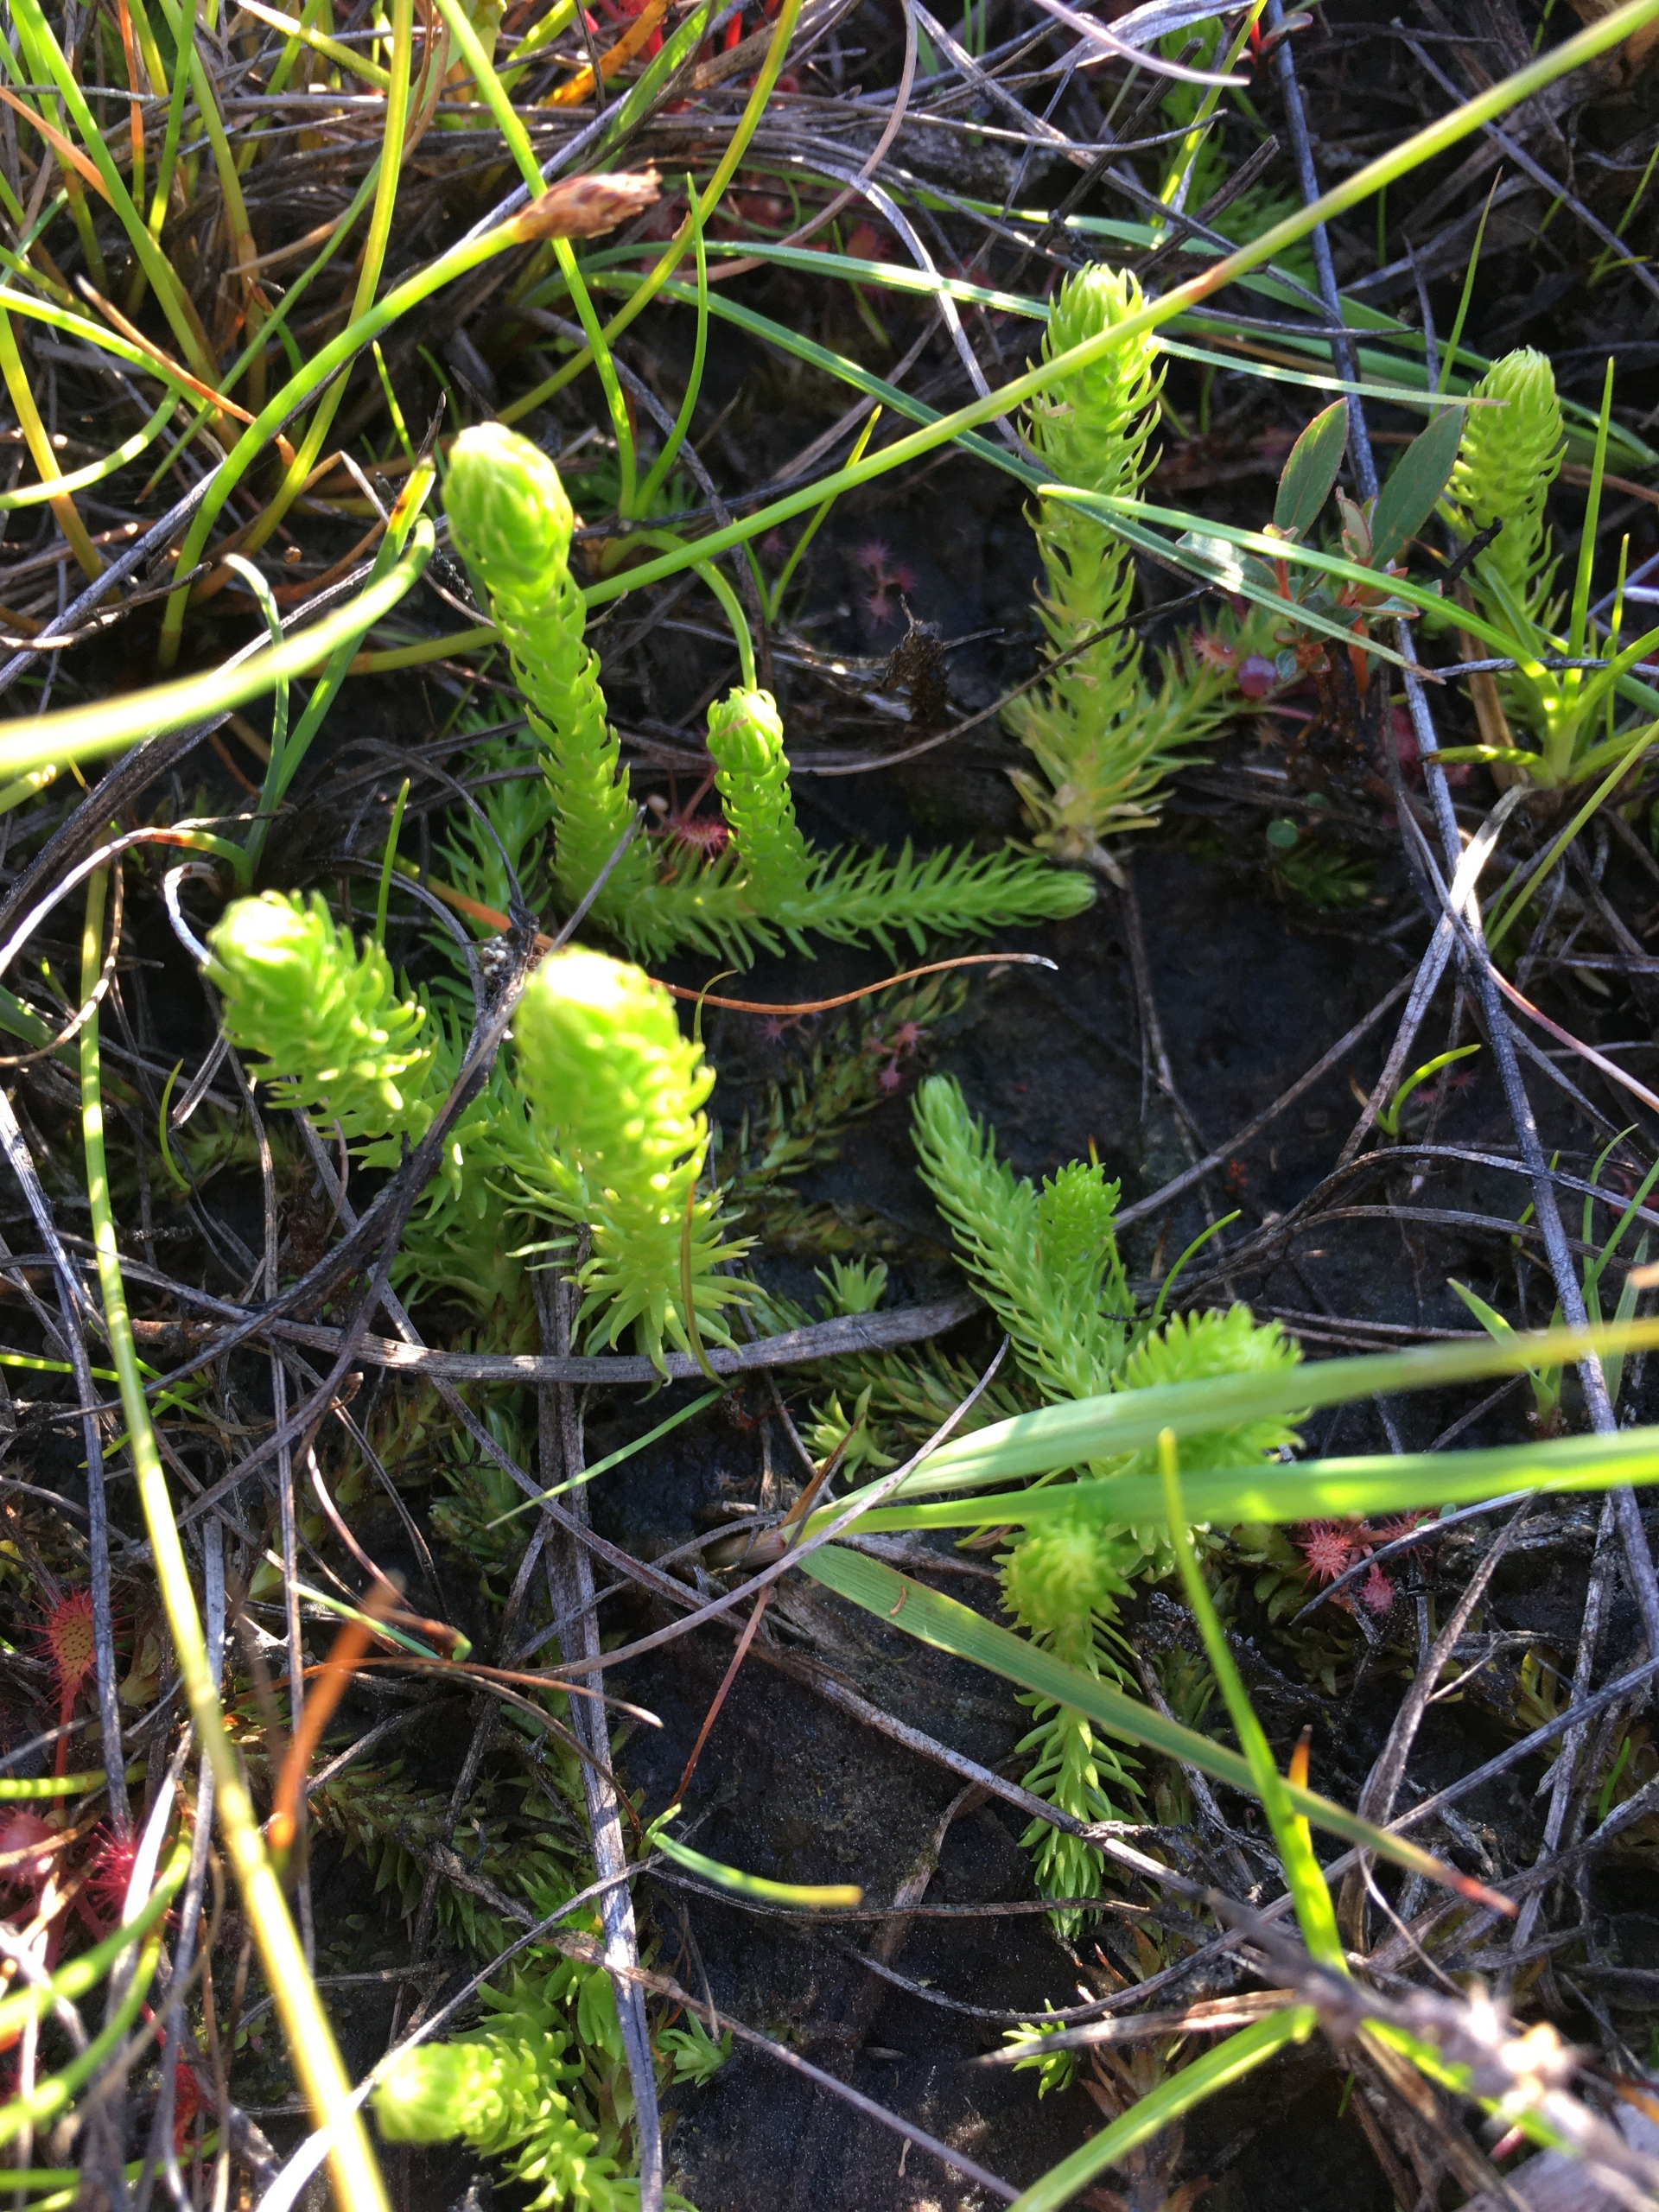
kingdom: Plantae
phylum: Tracheophyta
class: Lycopodiopsida
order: Lycopodiales
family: Lycopodiaceae
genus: Lycopodiella
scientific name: Lycopodiella inundata
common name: Liden ulvefod
